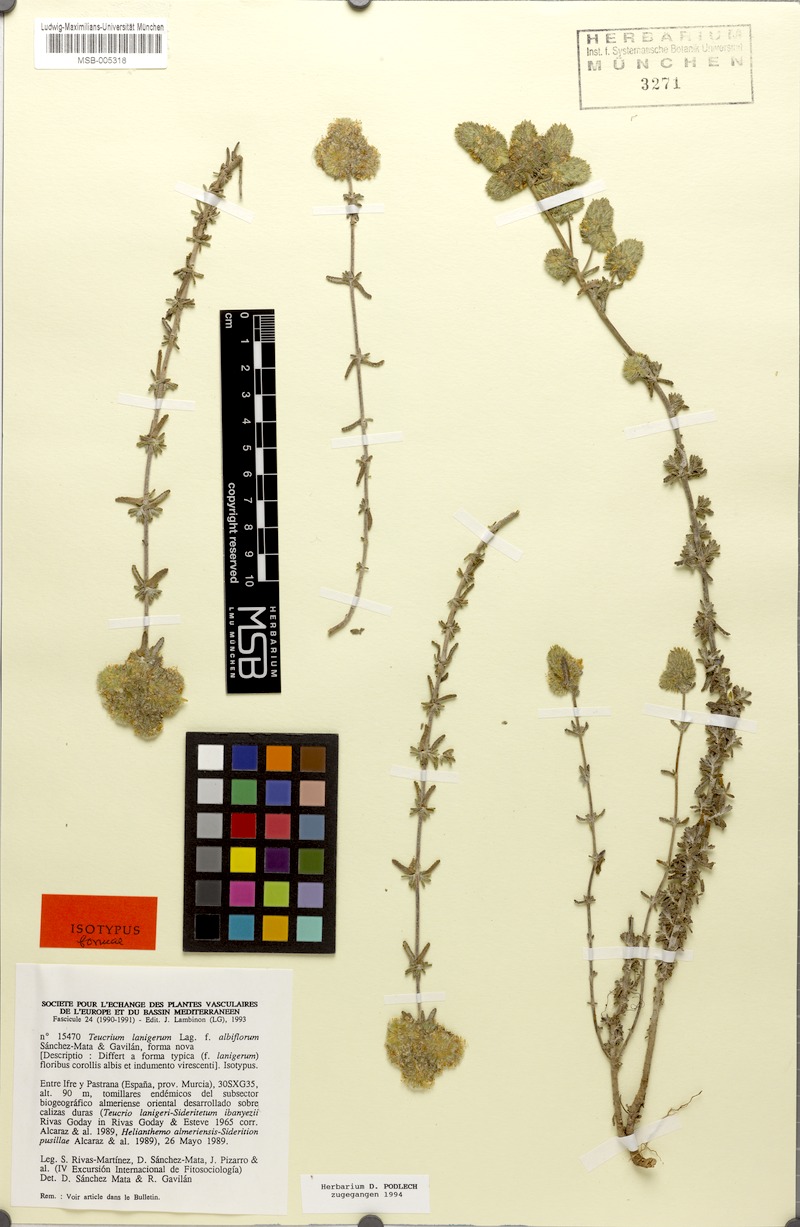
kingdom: Plantae
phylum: Tracheophyta
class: Magnoliopsida
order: Lamiales
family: Lamiaceae
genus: Teucrium
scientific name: Teucrium lanigerum
